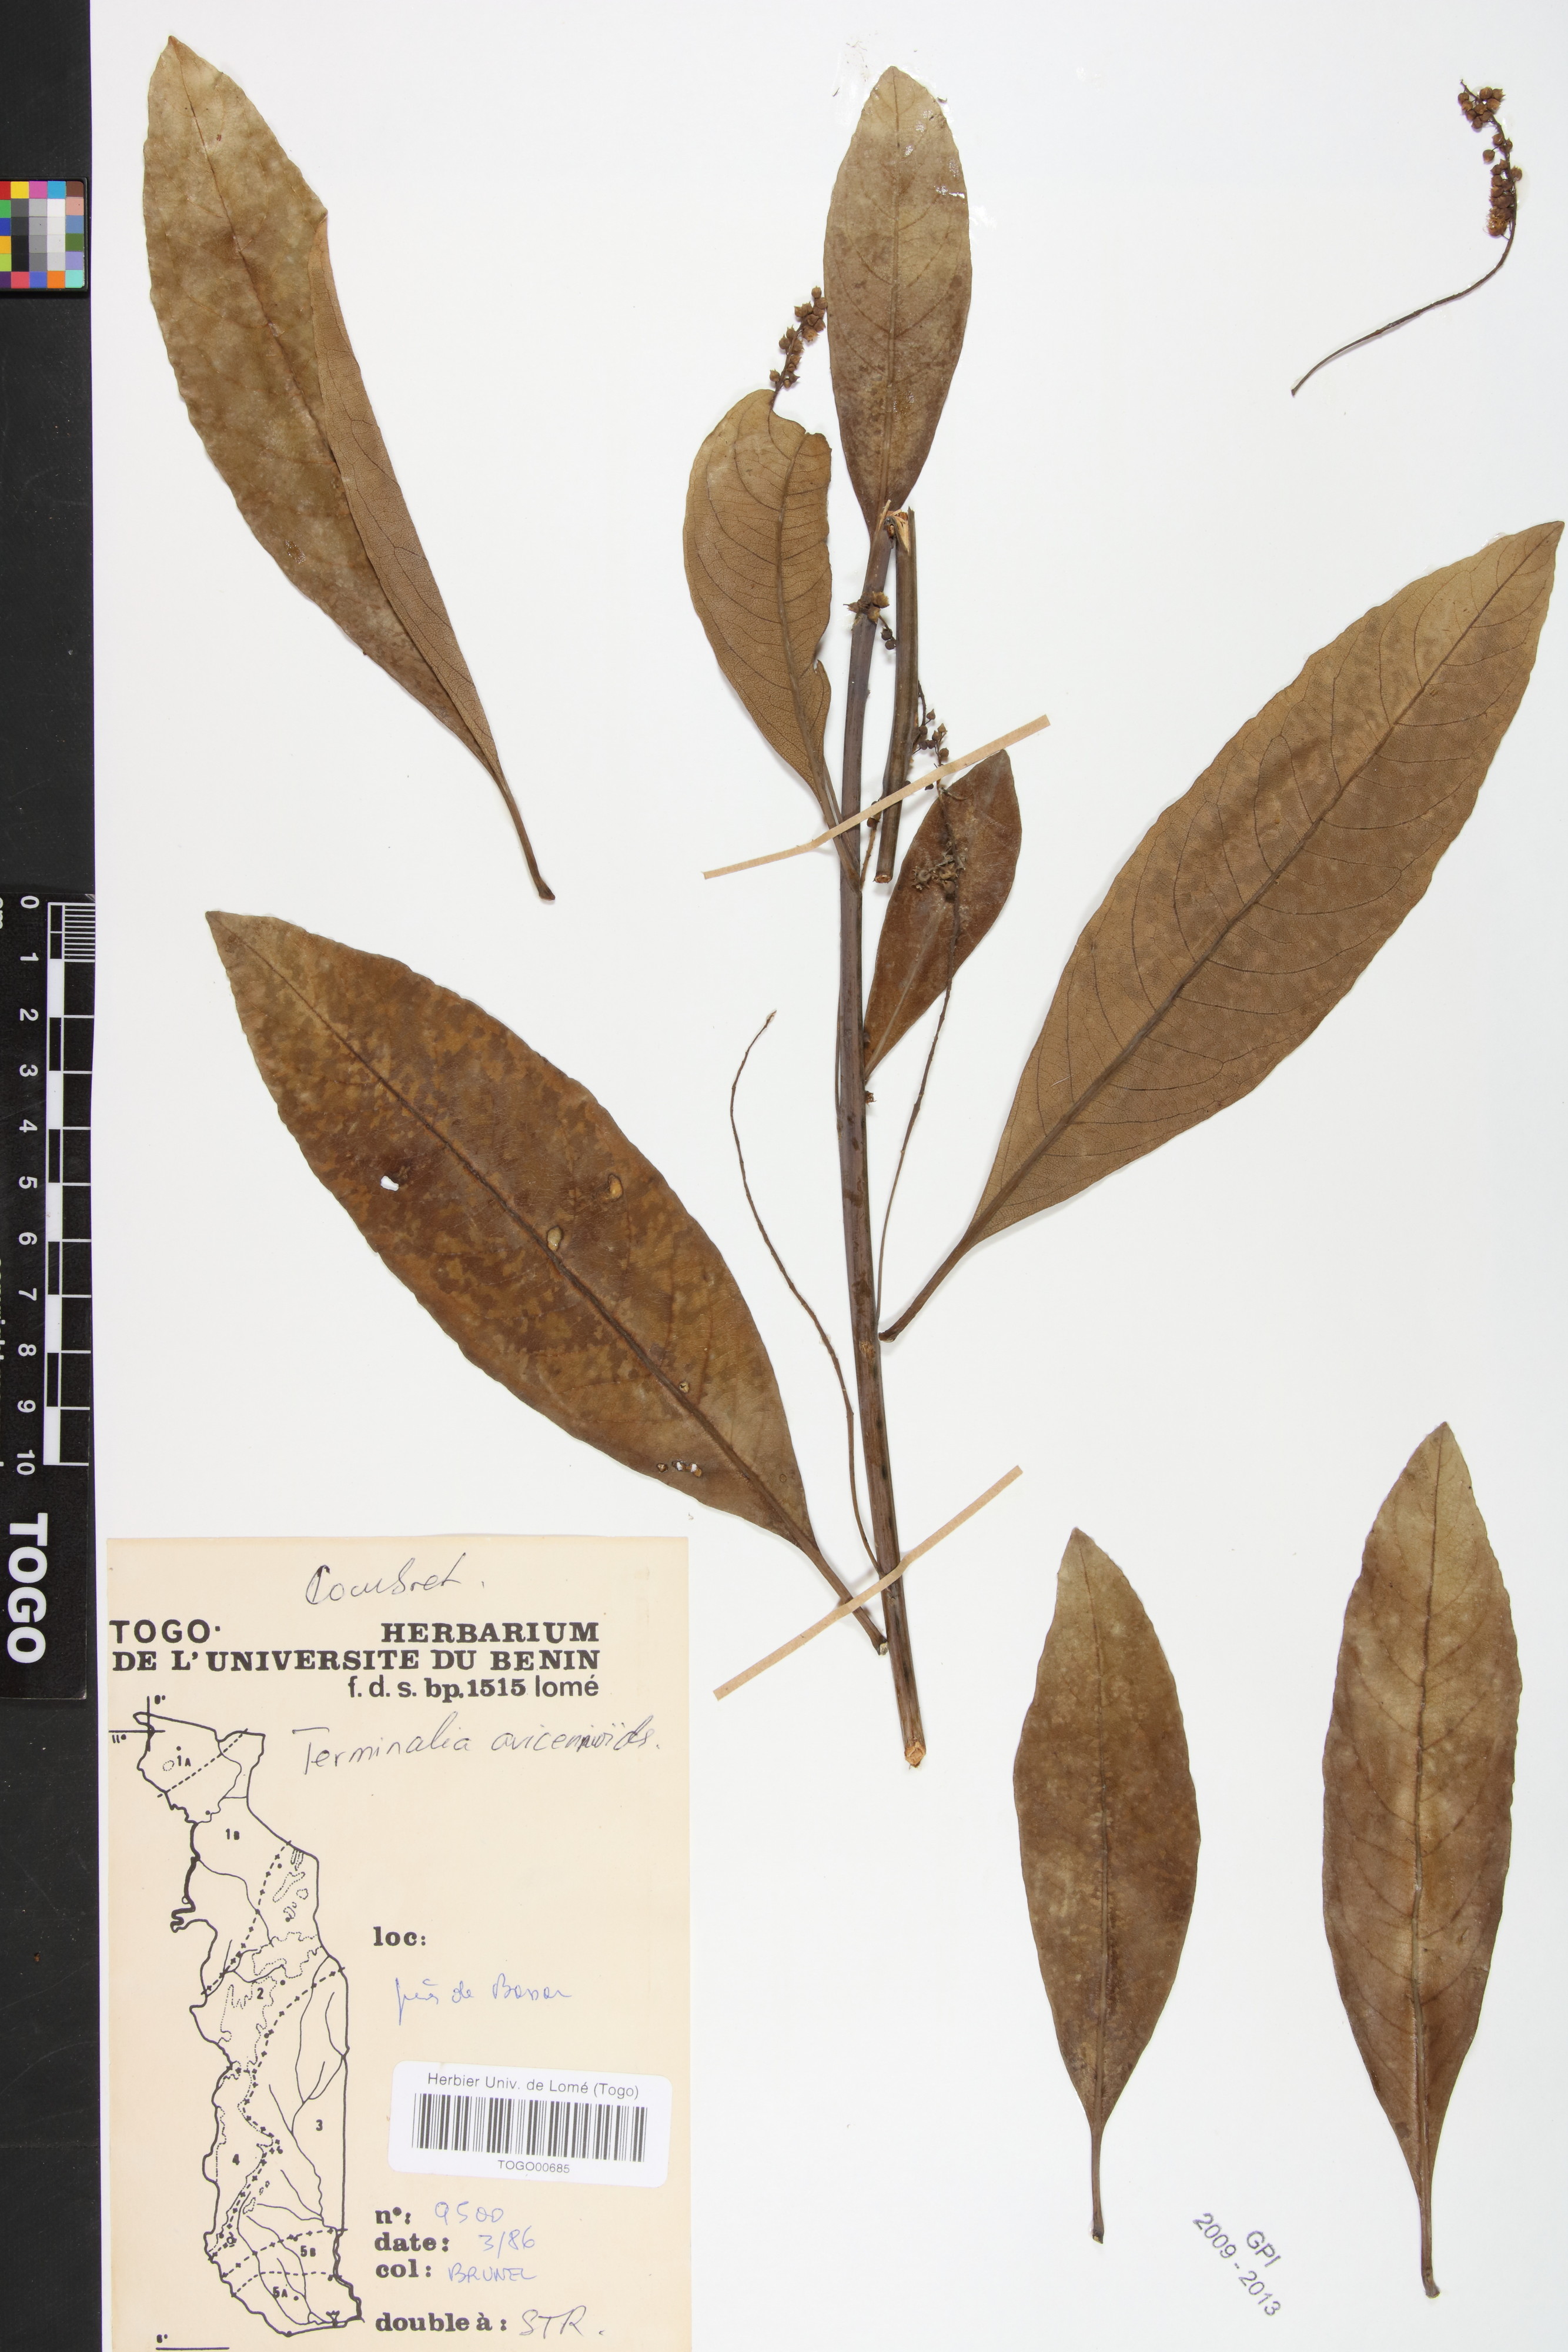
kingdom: Plantae
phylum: Tracheophyta
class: Magnoliopsida
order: Myrtales
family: Combretaceae
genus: Terminalia
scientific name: Terminalia avicennioides
